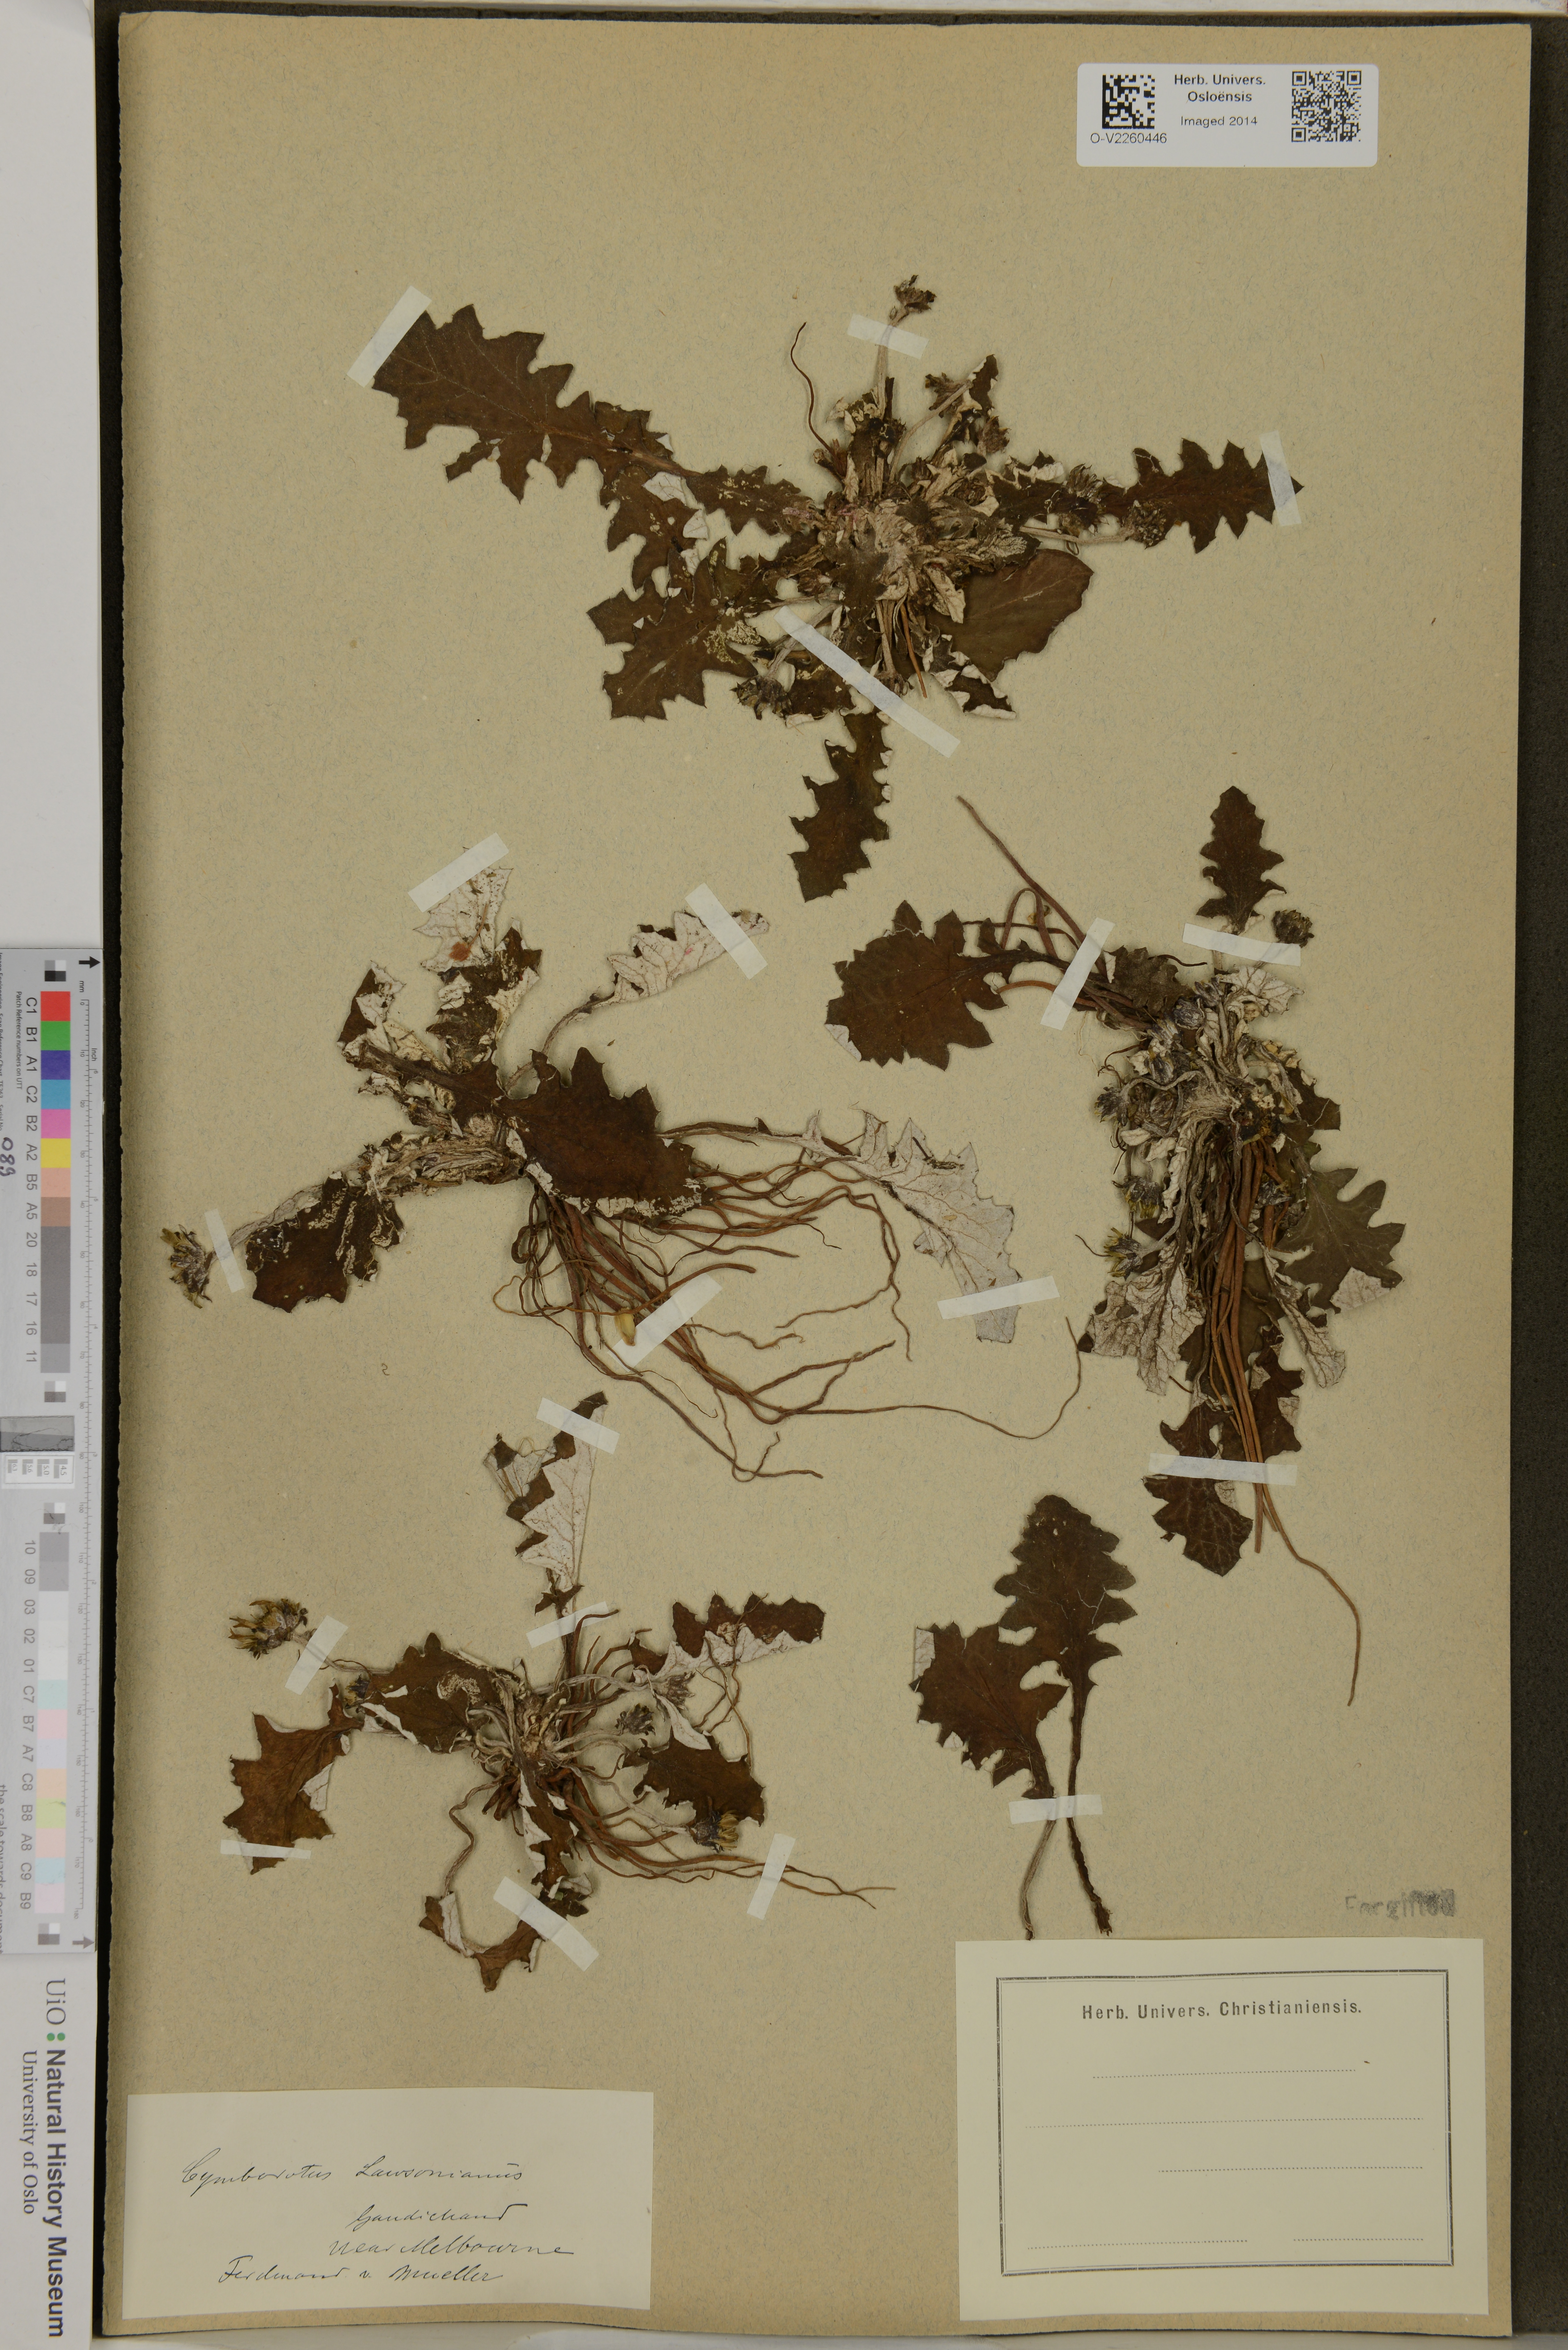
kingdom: Plantae
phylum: Tracheophyta
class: Magnoliopsida
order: Asterales
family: Asteraceae
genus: Cymbonotus
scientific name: Cymbonotus lawsonianus
